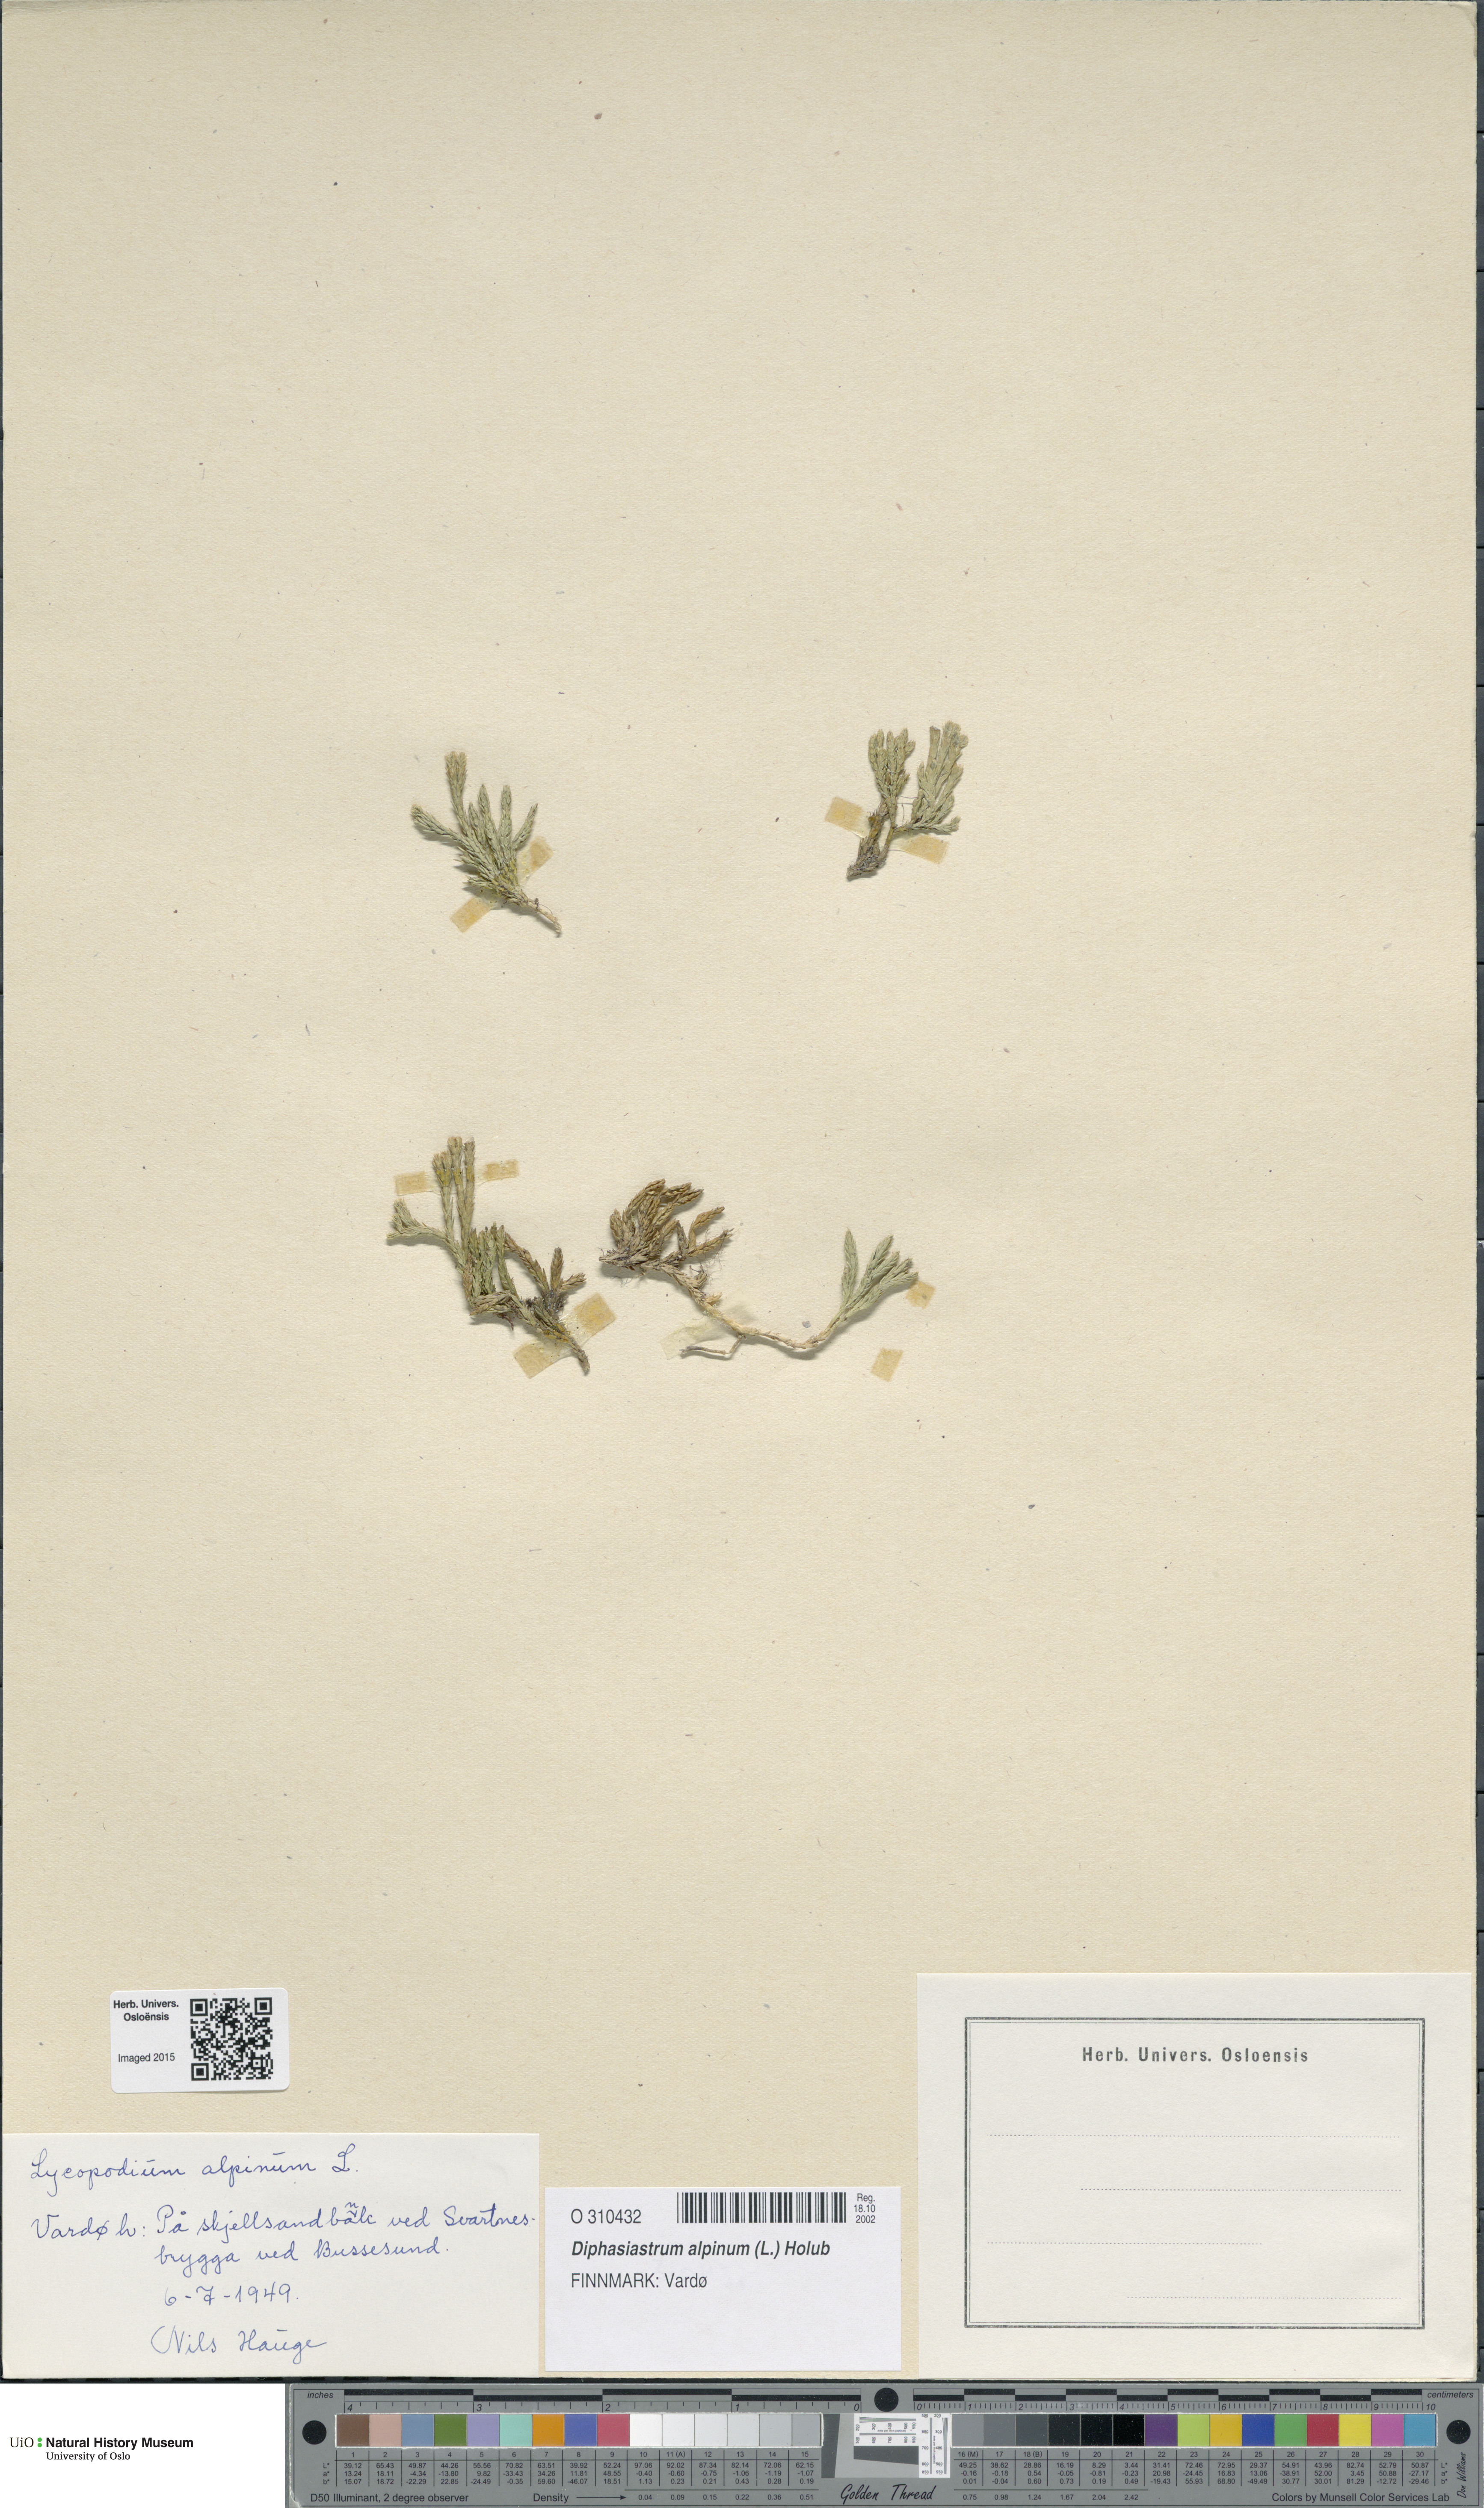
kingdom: Plantae
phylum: Tracheophyta
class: Lycopodiopsida
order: Lycopodiales
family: Lycopodiaceae
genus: Diphasiastrum
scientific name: Diphasiastrum alpinum
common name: Alpine clubmoss
